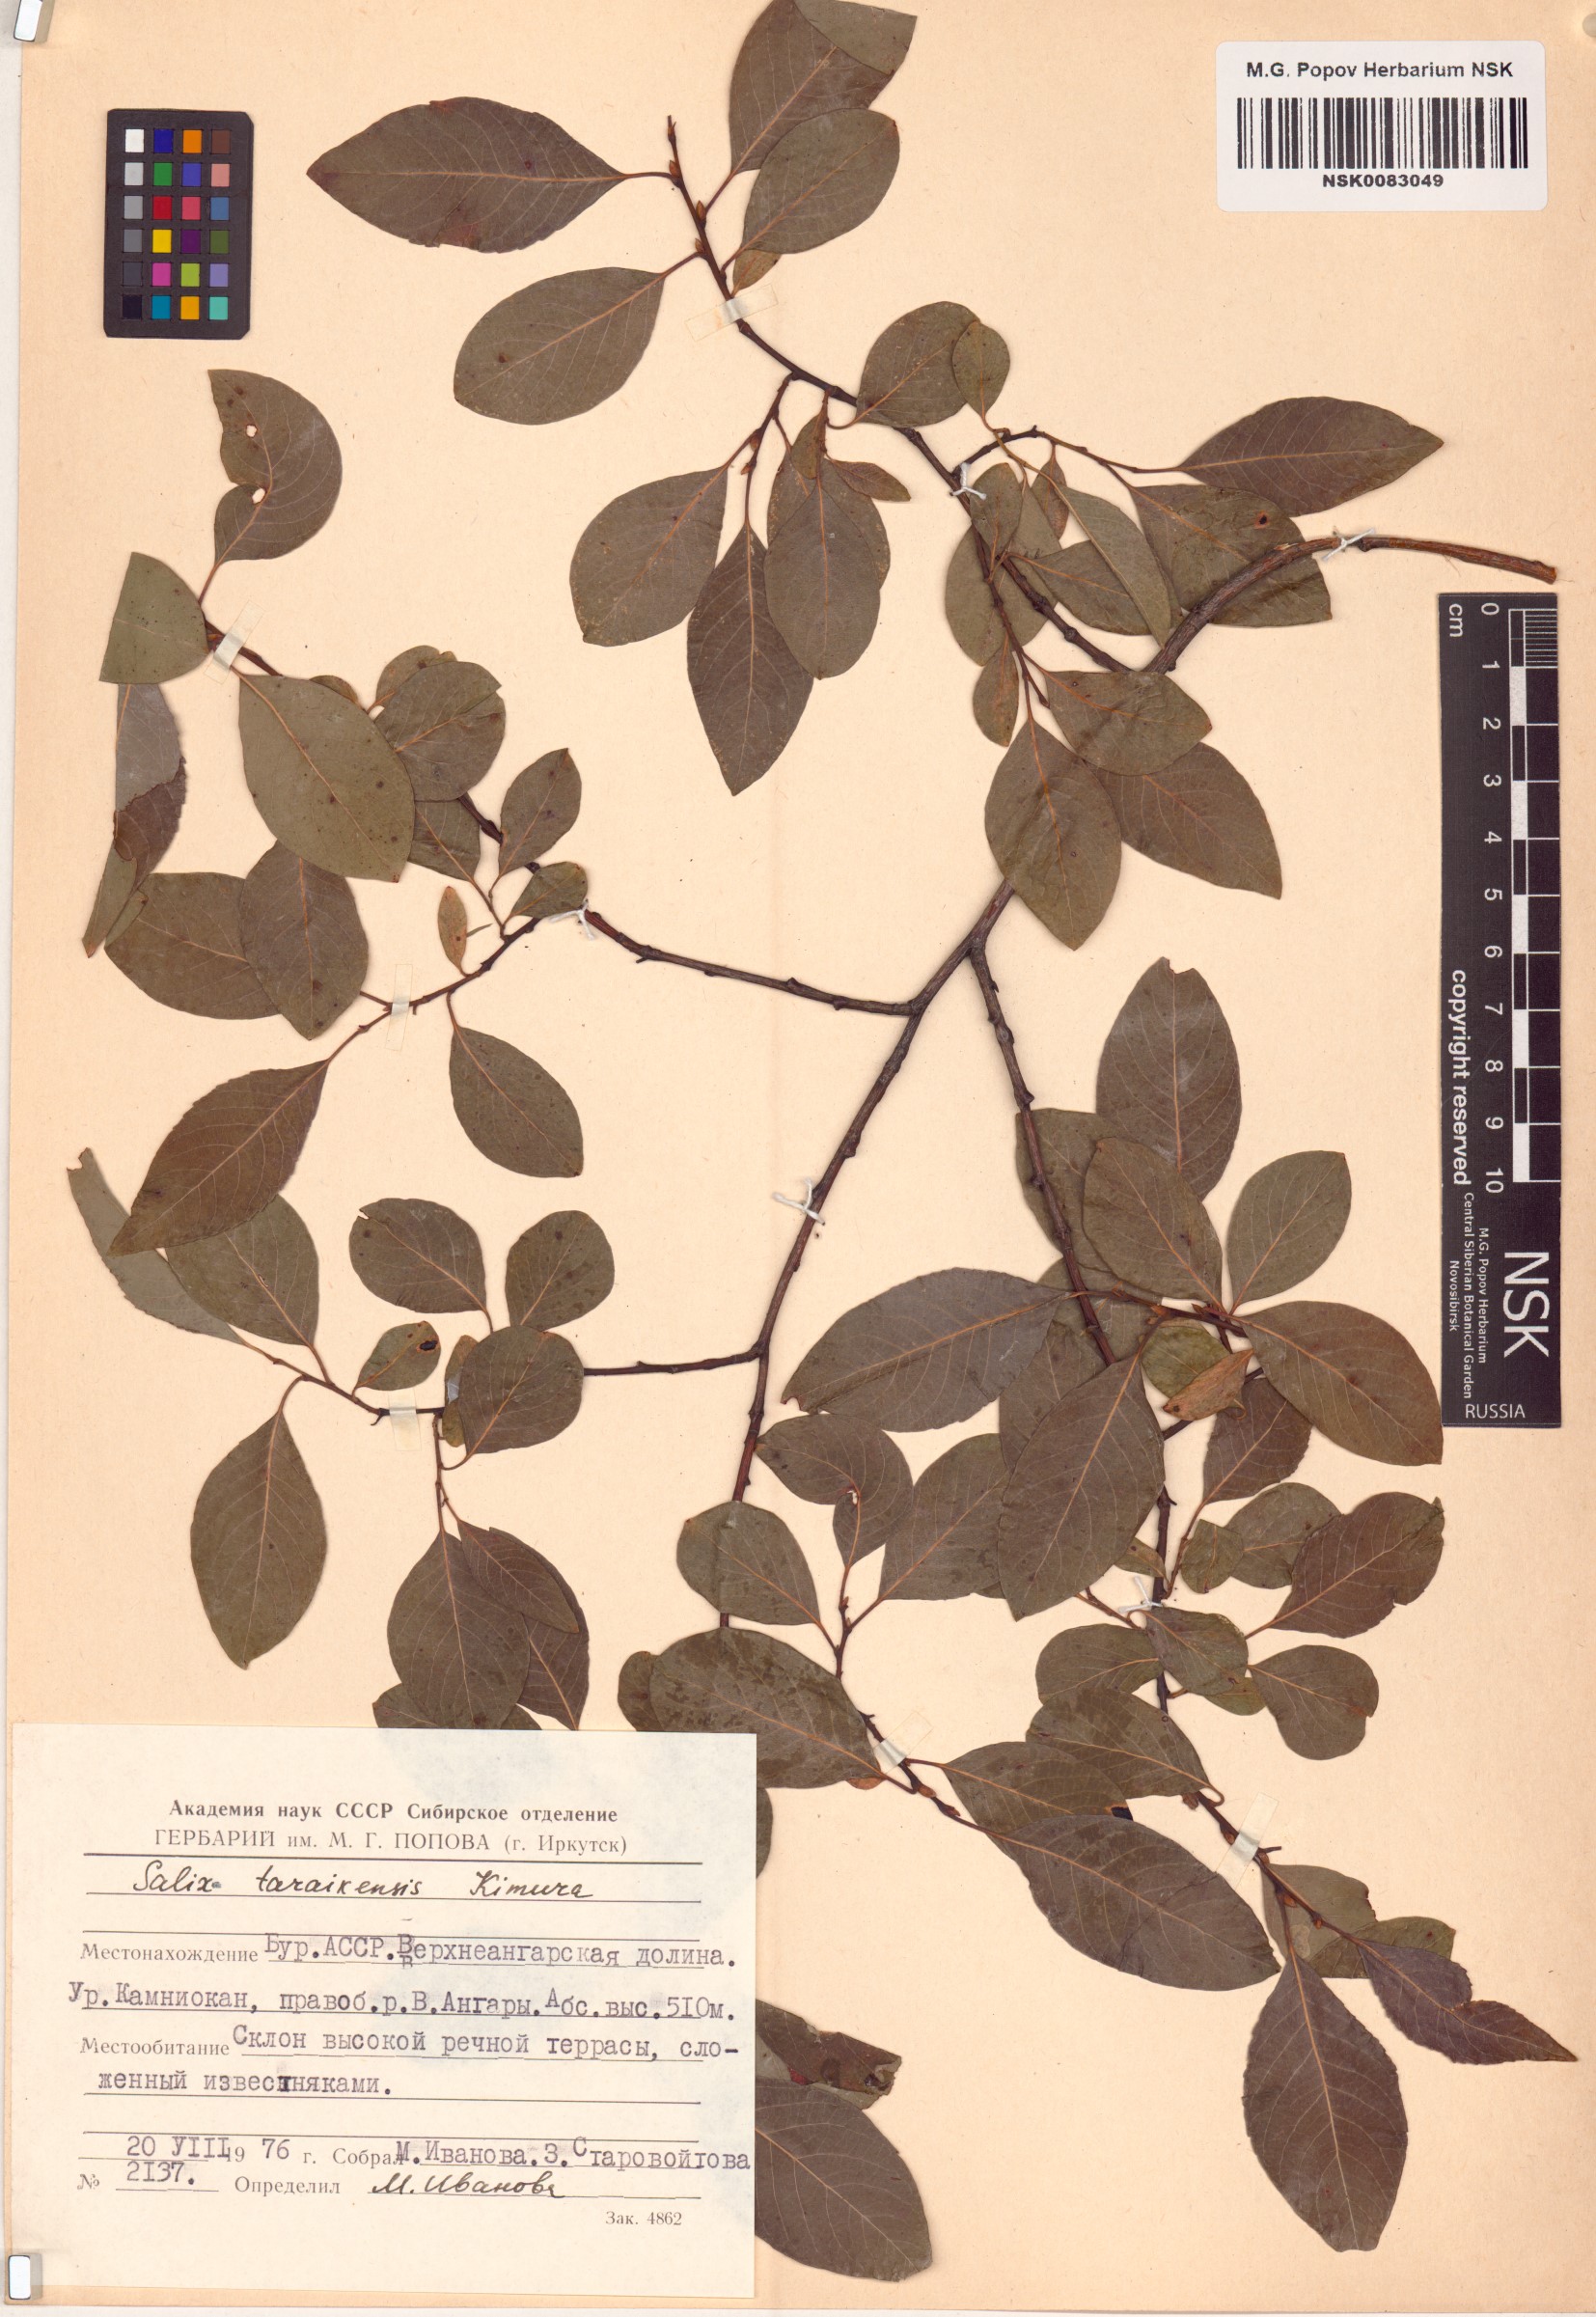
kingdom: Plantae
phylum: Tracheophyta
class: Magnoliopsida
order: Malpighiales
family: Salicaceae
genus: Salix
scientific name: Salix taraikensis
